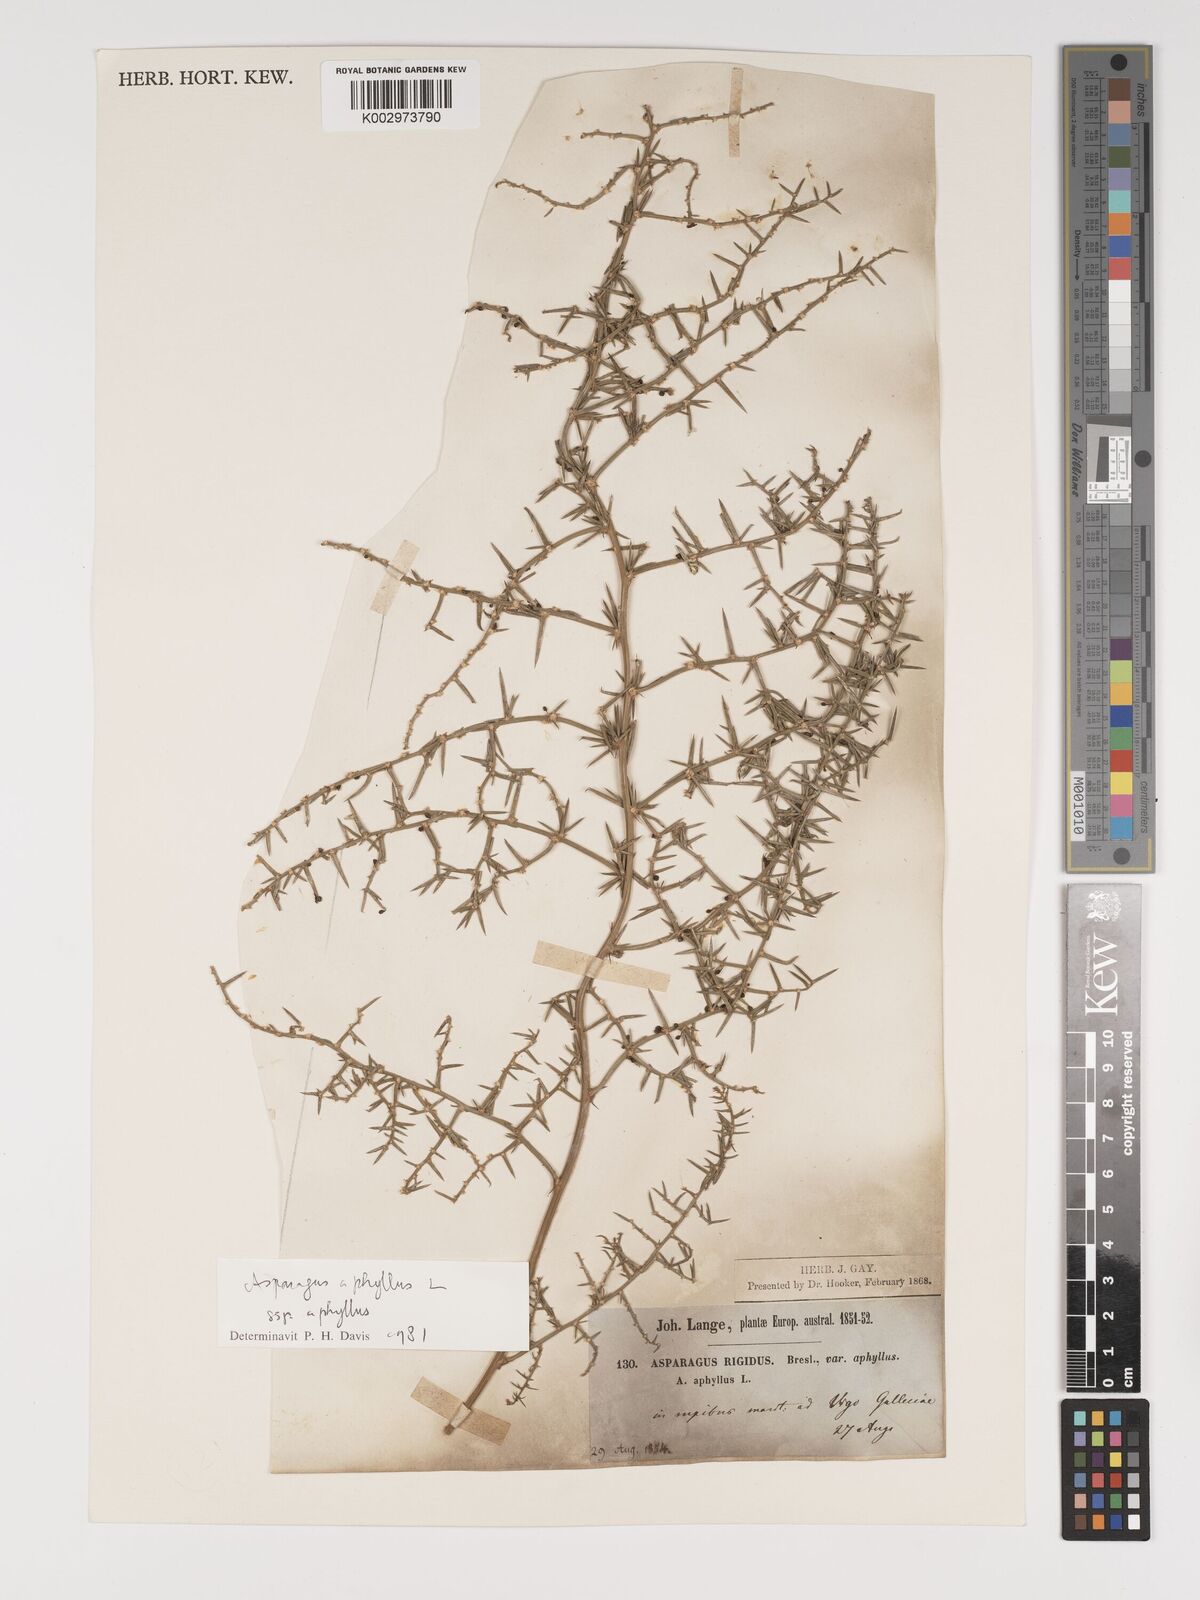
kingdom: Plantae
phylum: Tracheophyta
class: Liliopsida
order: Asparagales
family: Asparagaceae
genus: Asparagus
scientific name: Asparagus aphyllus
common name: Mediterranean asparagus
